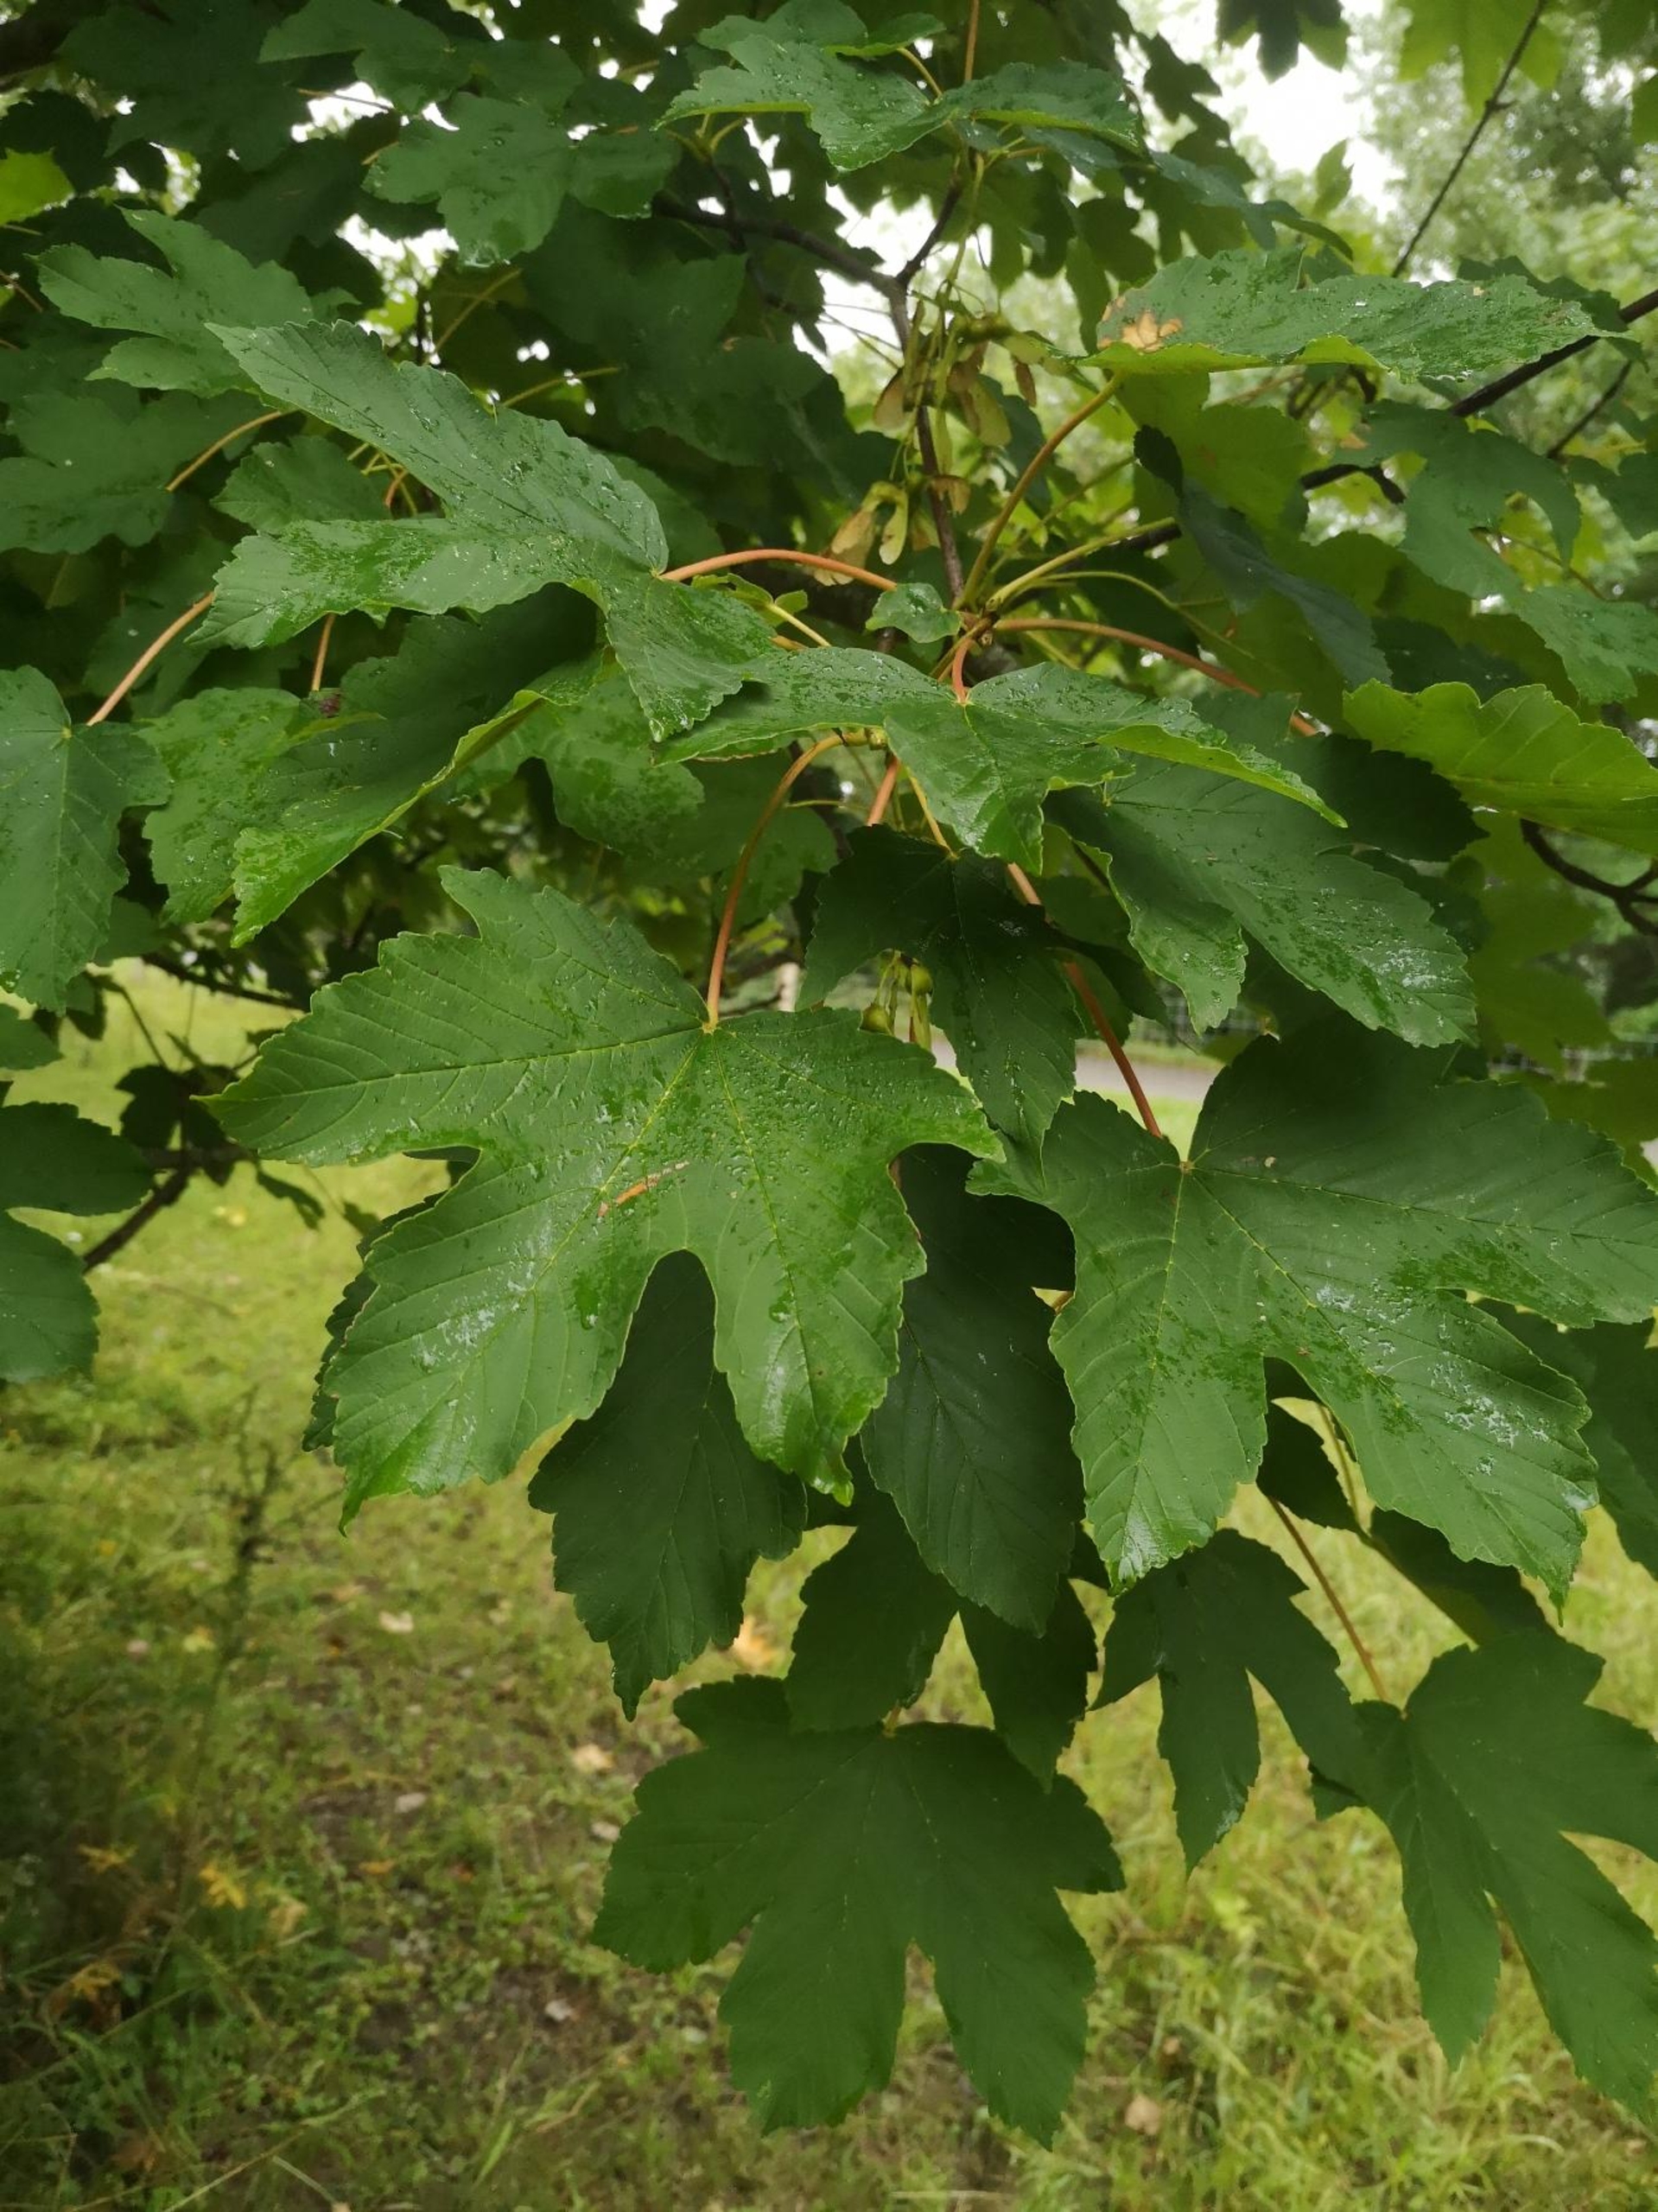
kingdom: Plantae
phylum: Tracheophyta
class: Magnoliopsida
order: Sapindales
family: Sapindaceae
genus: Acer
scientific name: Acer pseudoplatanus
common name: Ahorn
